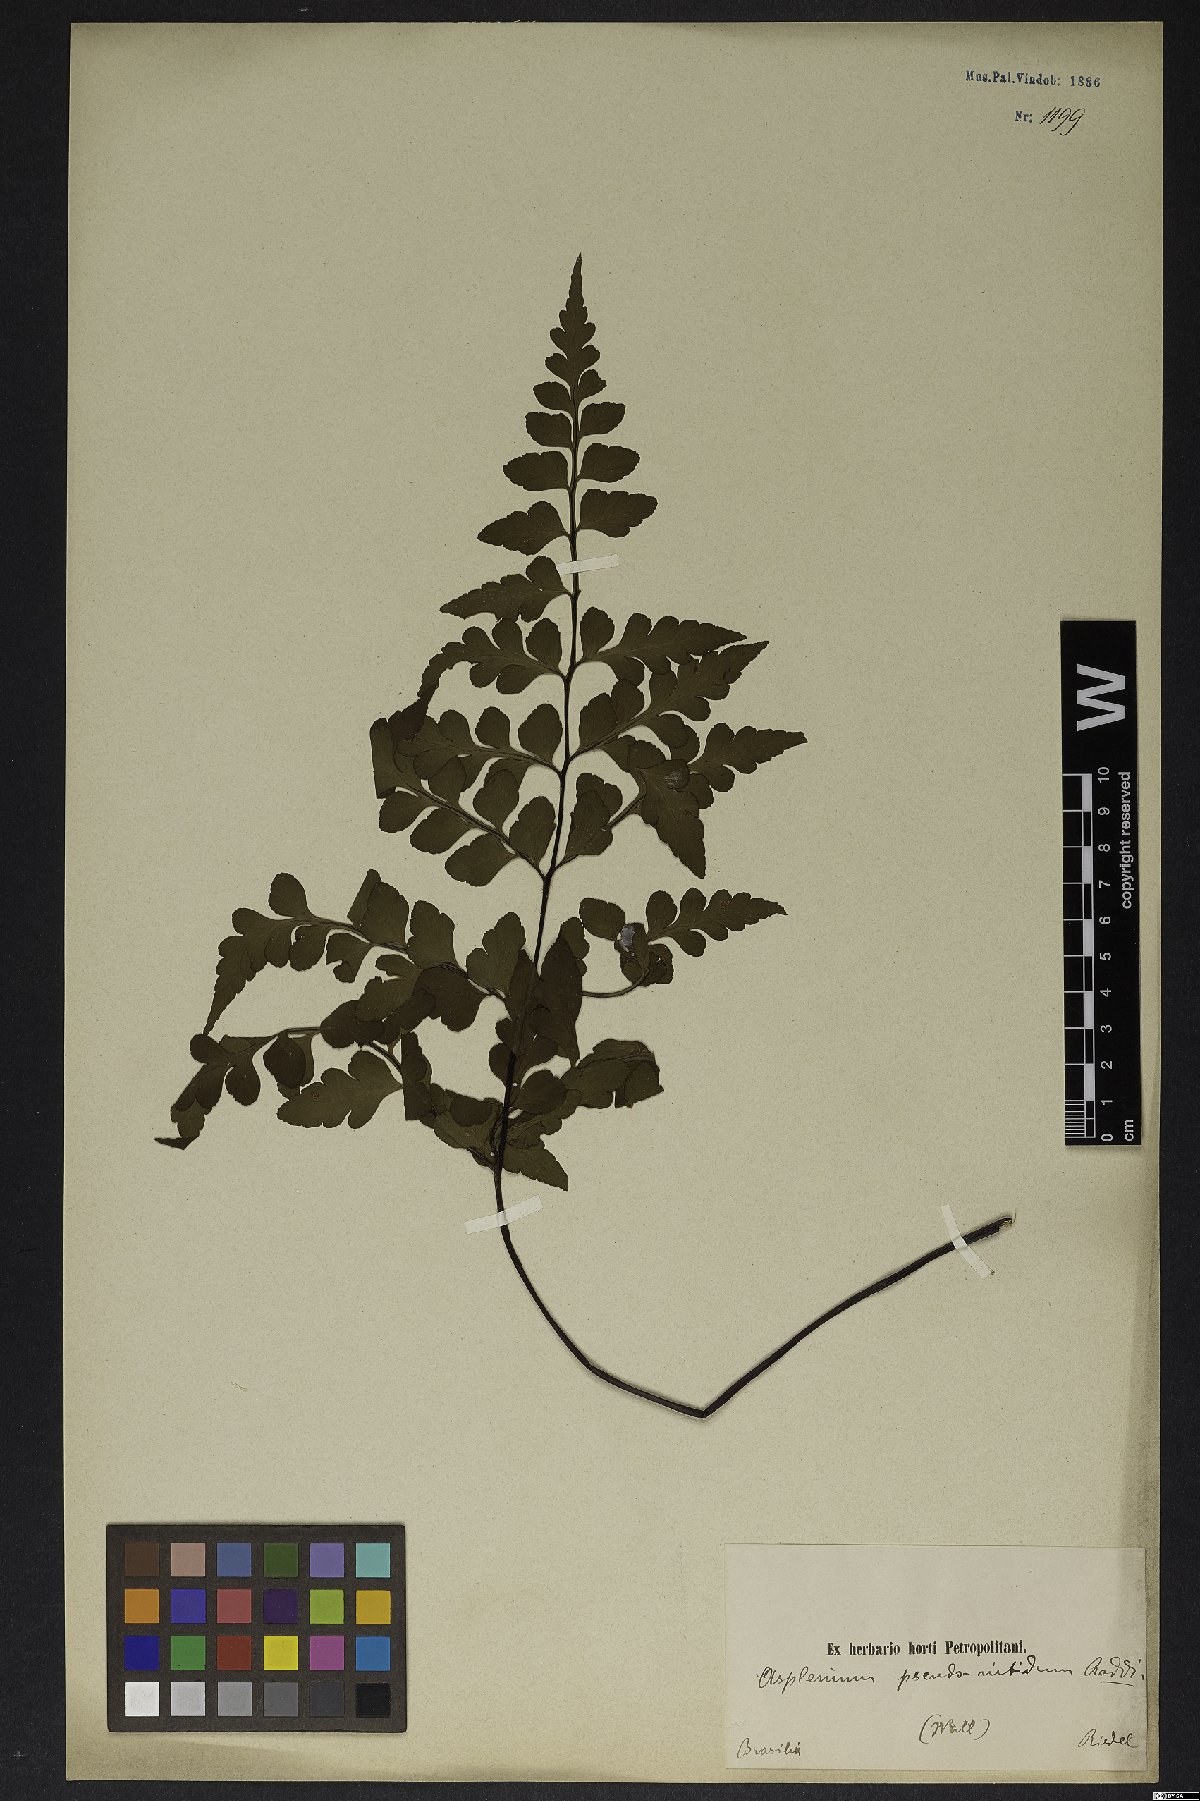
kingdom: Plantae
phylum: Tracheophyta
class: Polypodiopsida
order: Polypodiales
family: Aspleniaceae
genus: Asplenium
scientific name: Asplenium pseudonitidum
